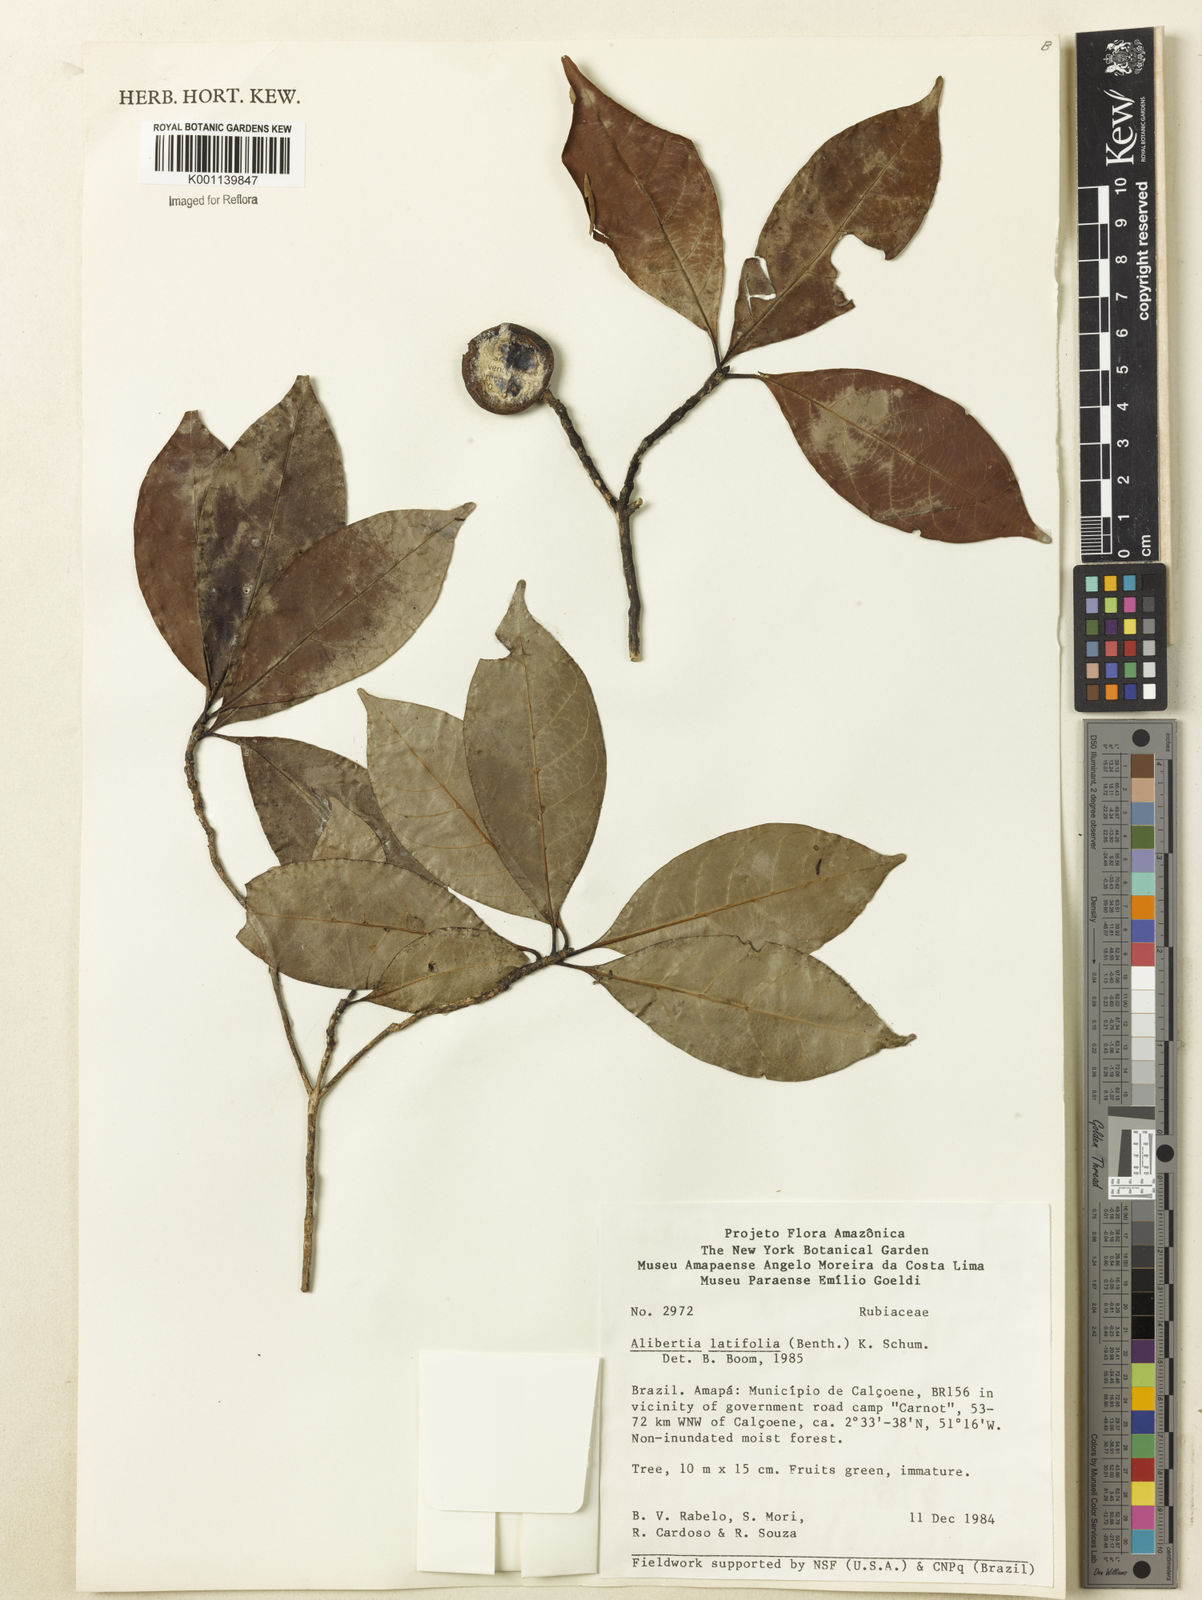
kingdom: Plantae
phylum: Tracheophyta
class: Magnoliopsida
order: Gentianales
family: Rubiaceae
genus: Alibertia
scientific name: Alibertia latifolia
